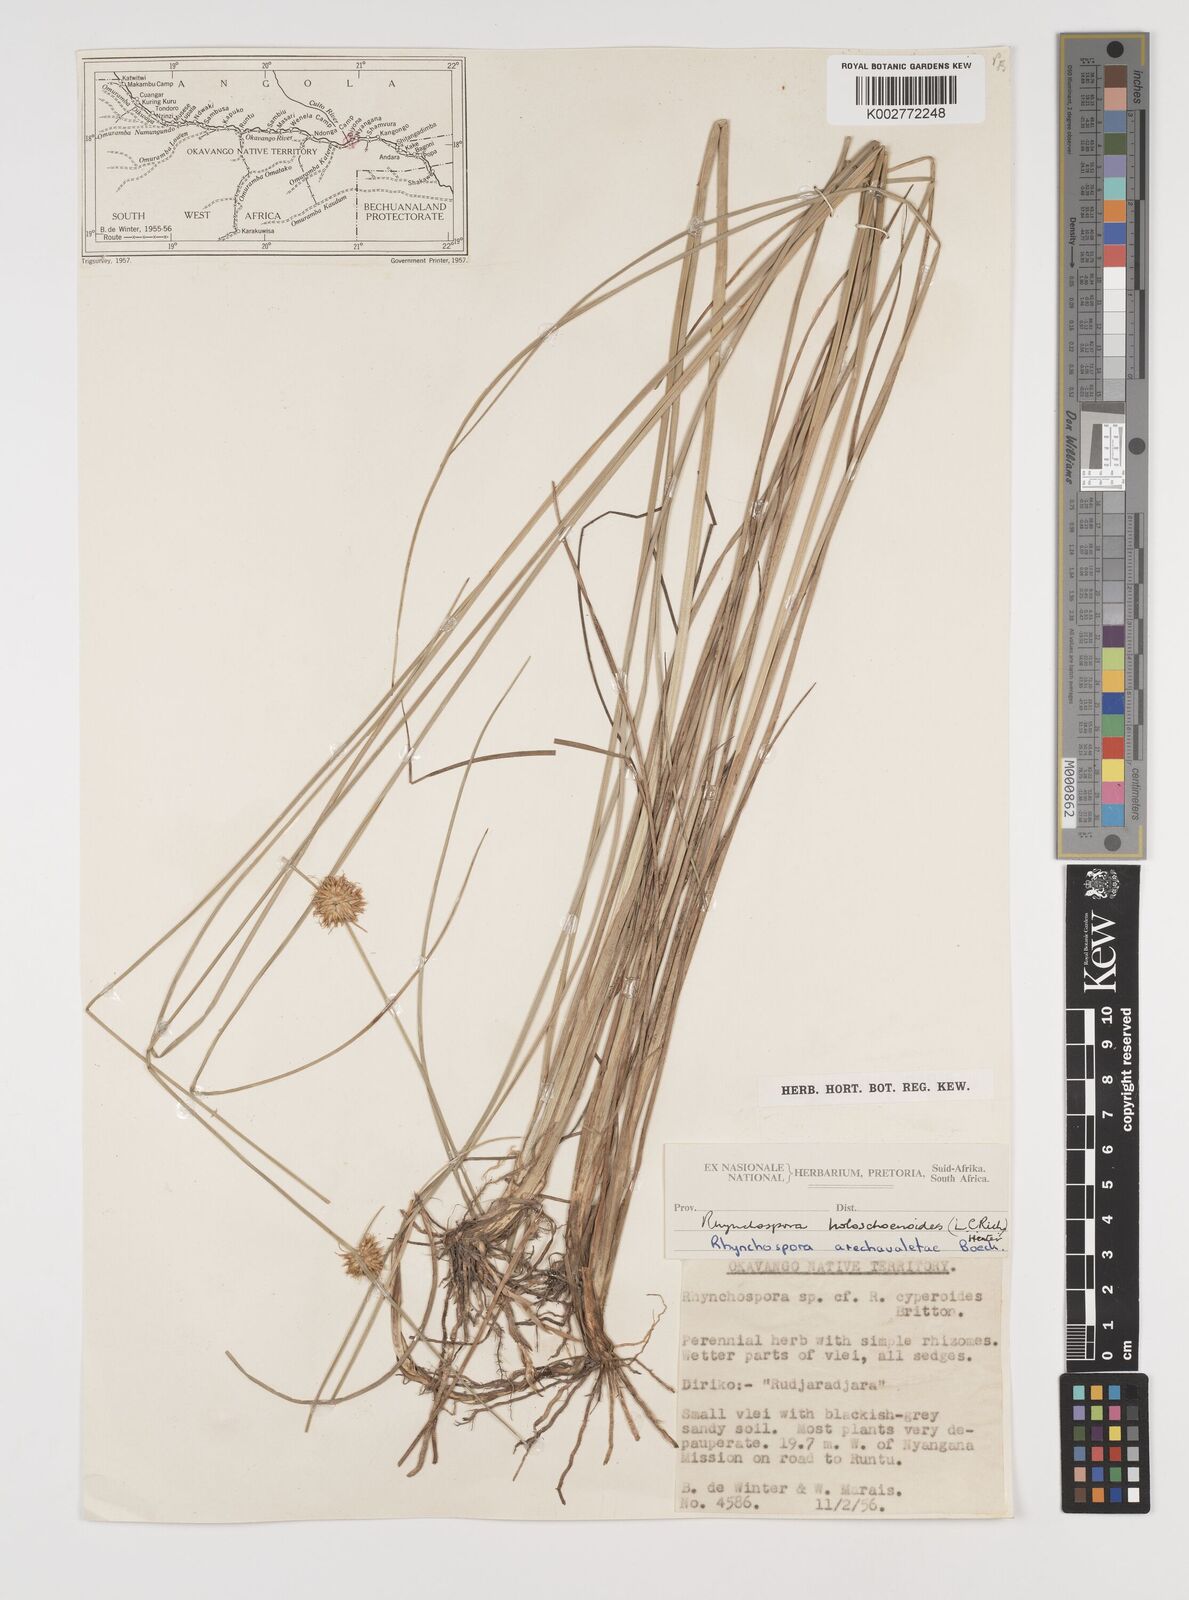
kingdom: Plantae
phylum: Tracheophyta
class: Liliopsida
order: Poales
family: Cyperaceae
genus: Rhynchospora
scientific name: Rhynchospora holoschoenoides
